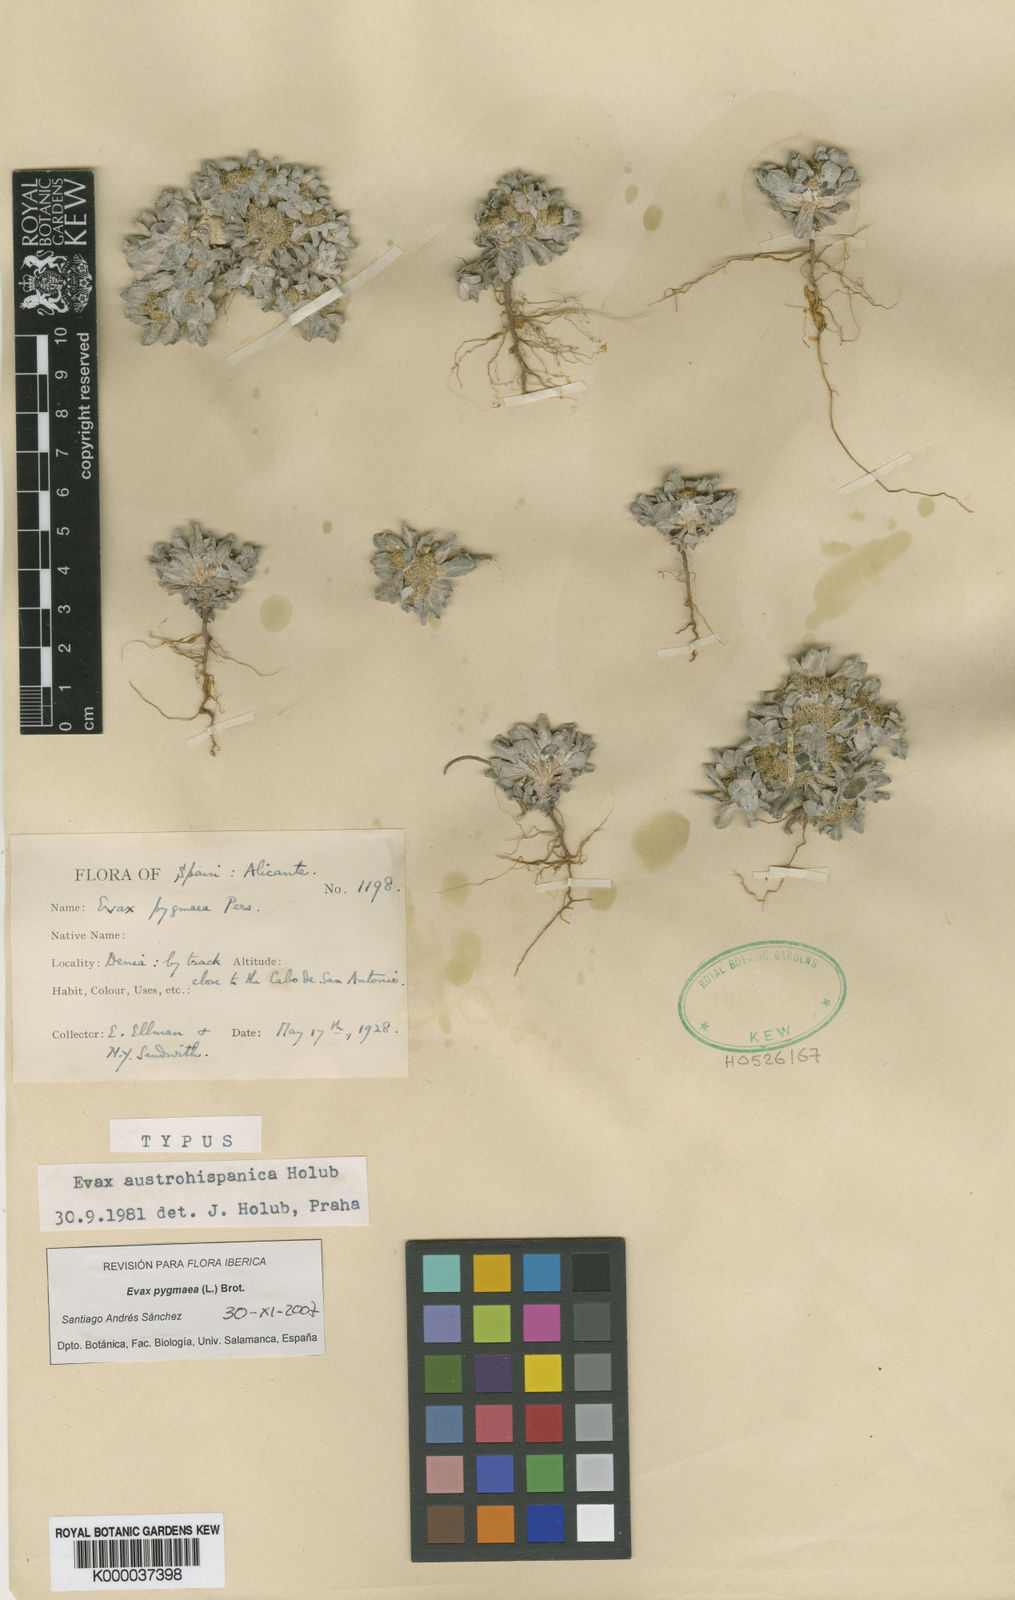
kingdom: Plantae
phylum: Tracheophyta
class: Magnoliopsida
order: Asterales
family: Asteraceae
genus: Filago
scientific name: Filago
